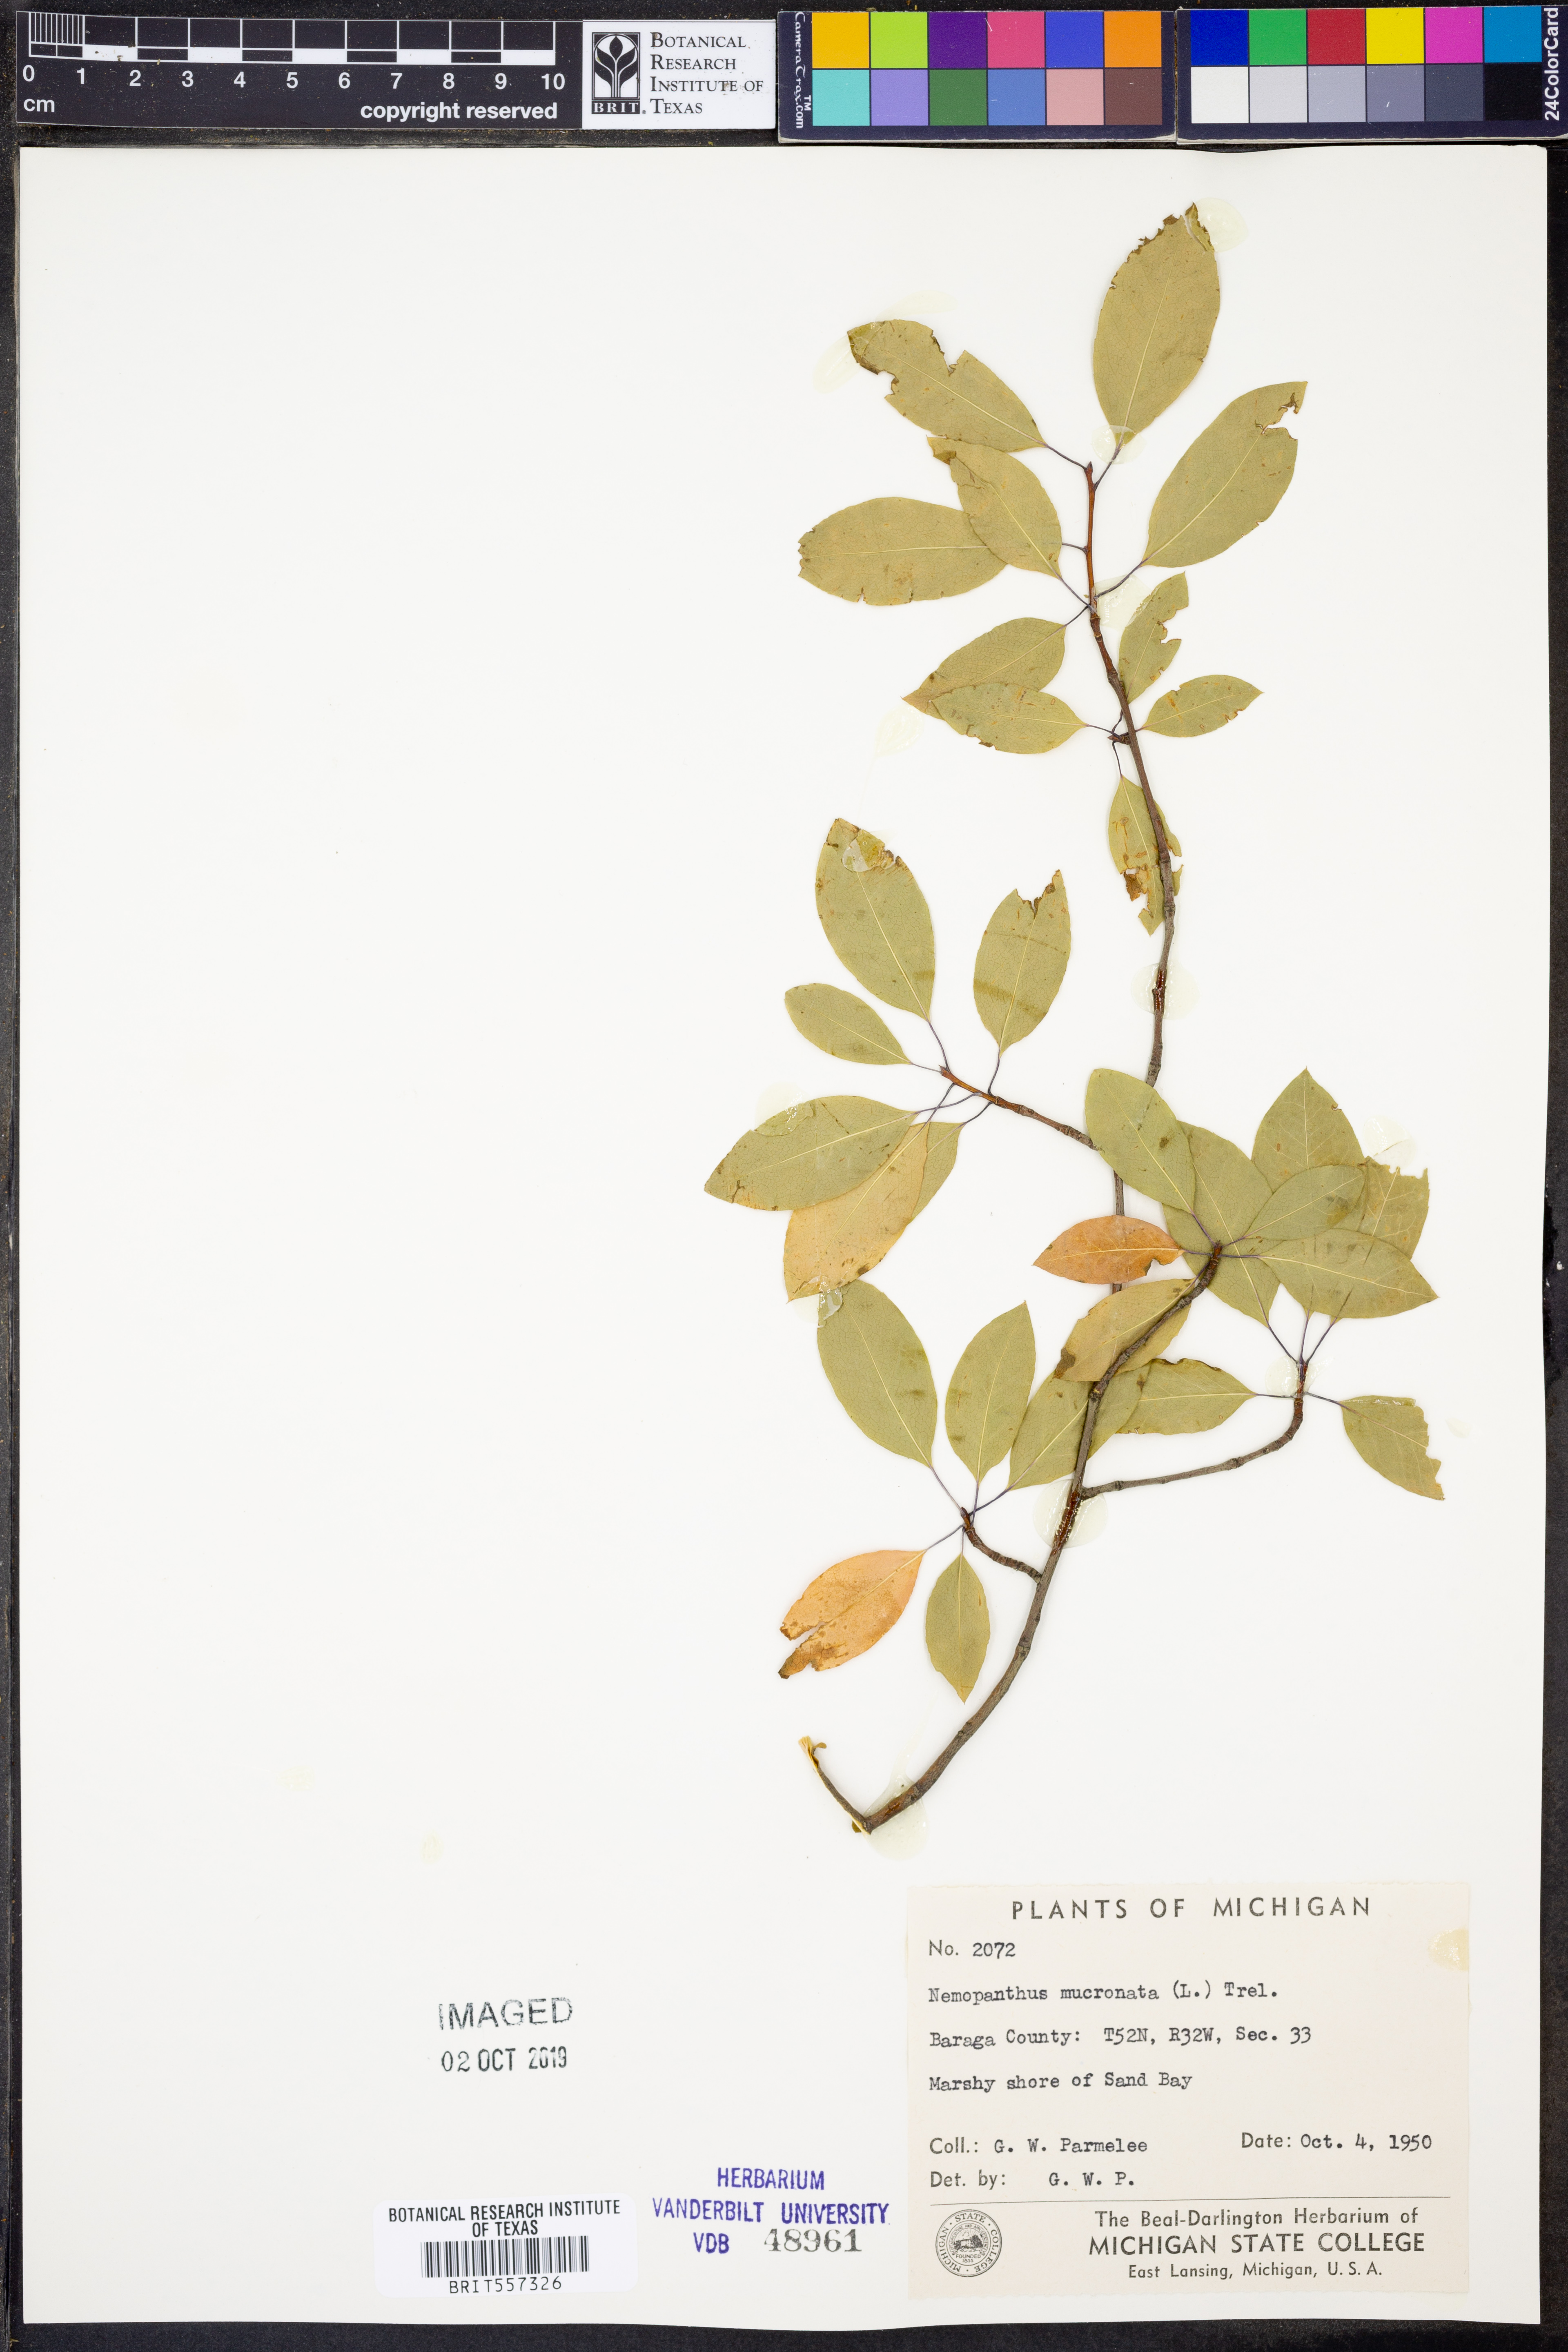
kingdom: Plantae
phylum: Tracheophyta
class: Magnoliopsida
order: Aquifoliales
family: Aquifoliaceae
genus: Ilex
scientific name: Ilex mucronata
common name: Catberry
